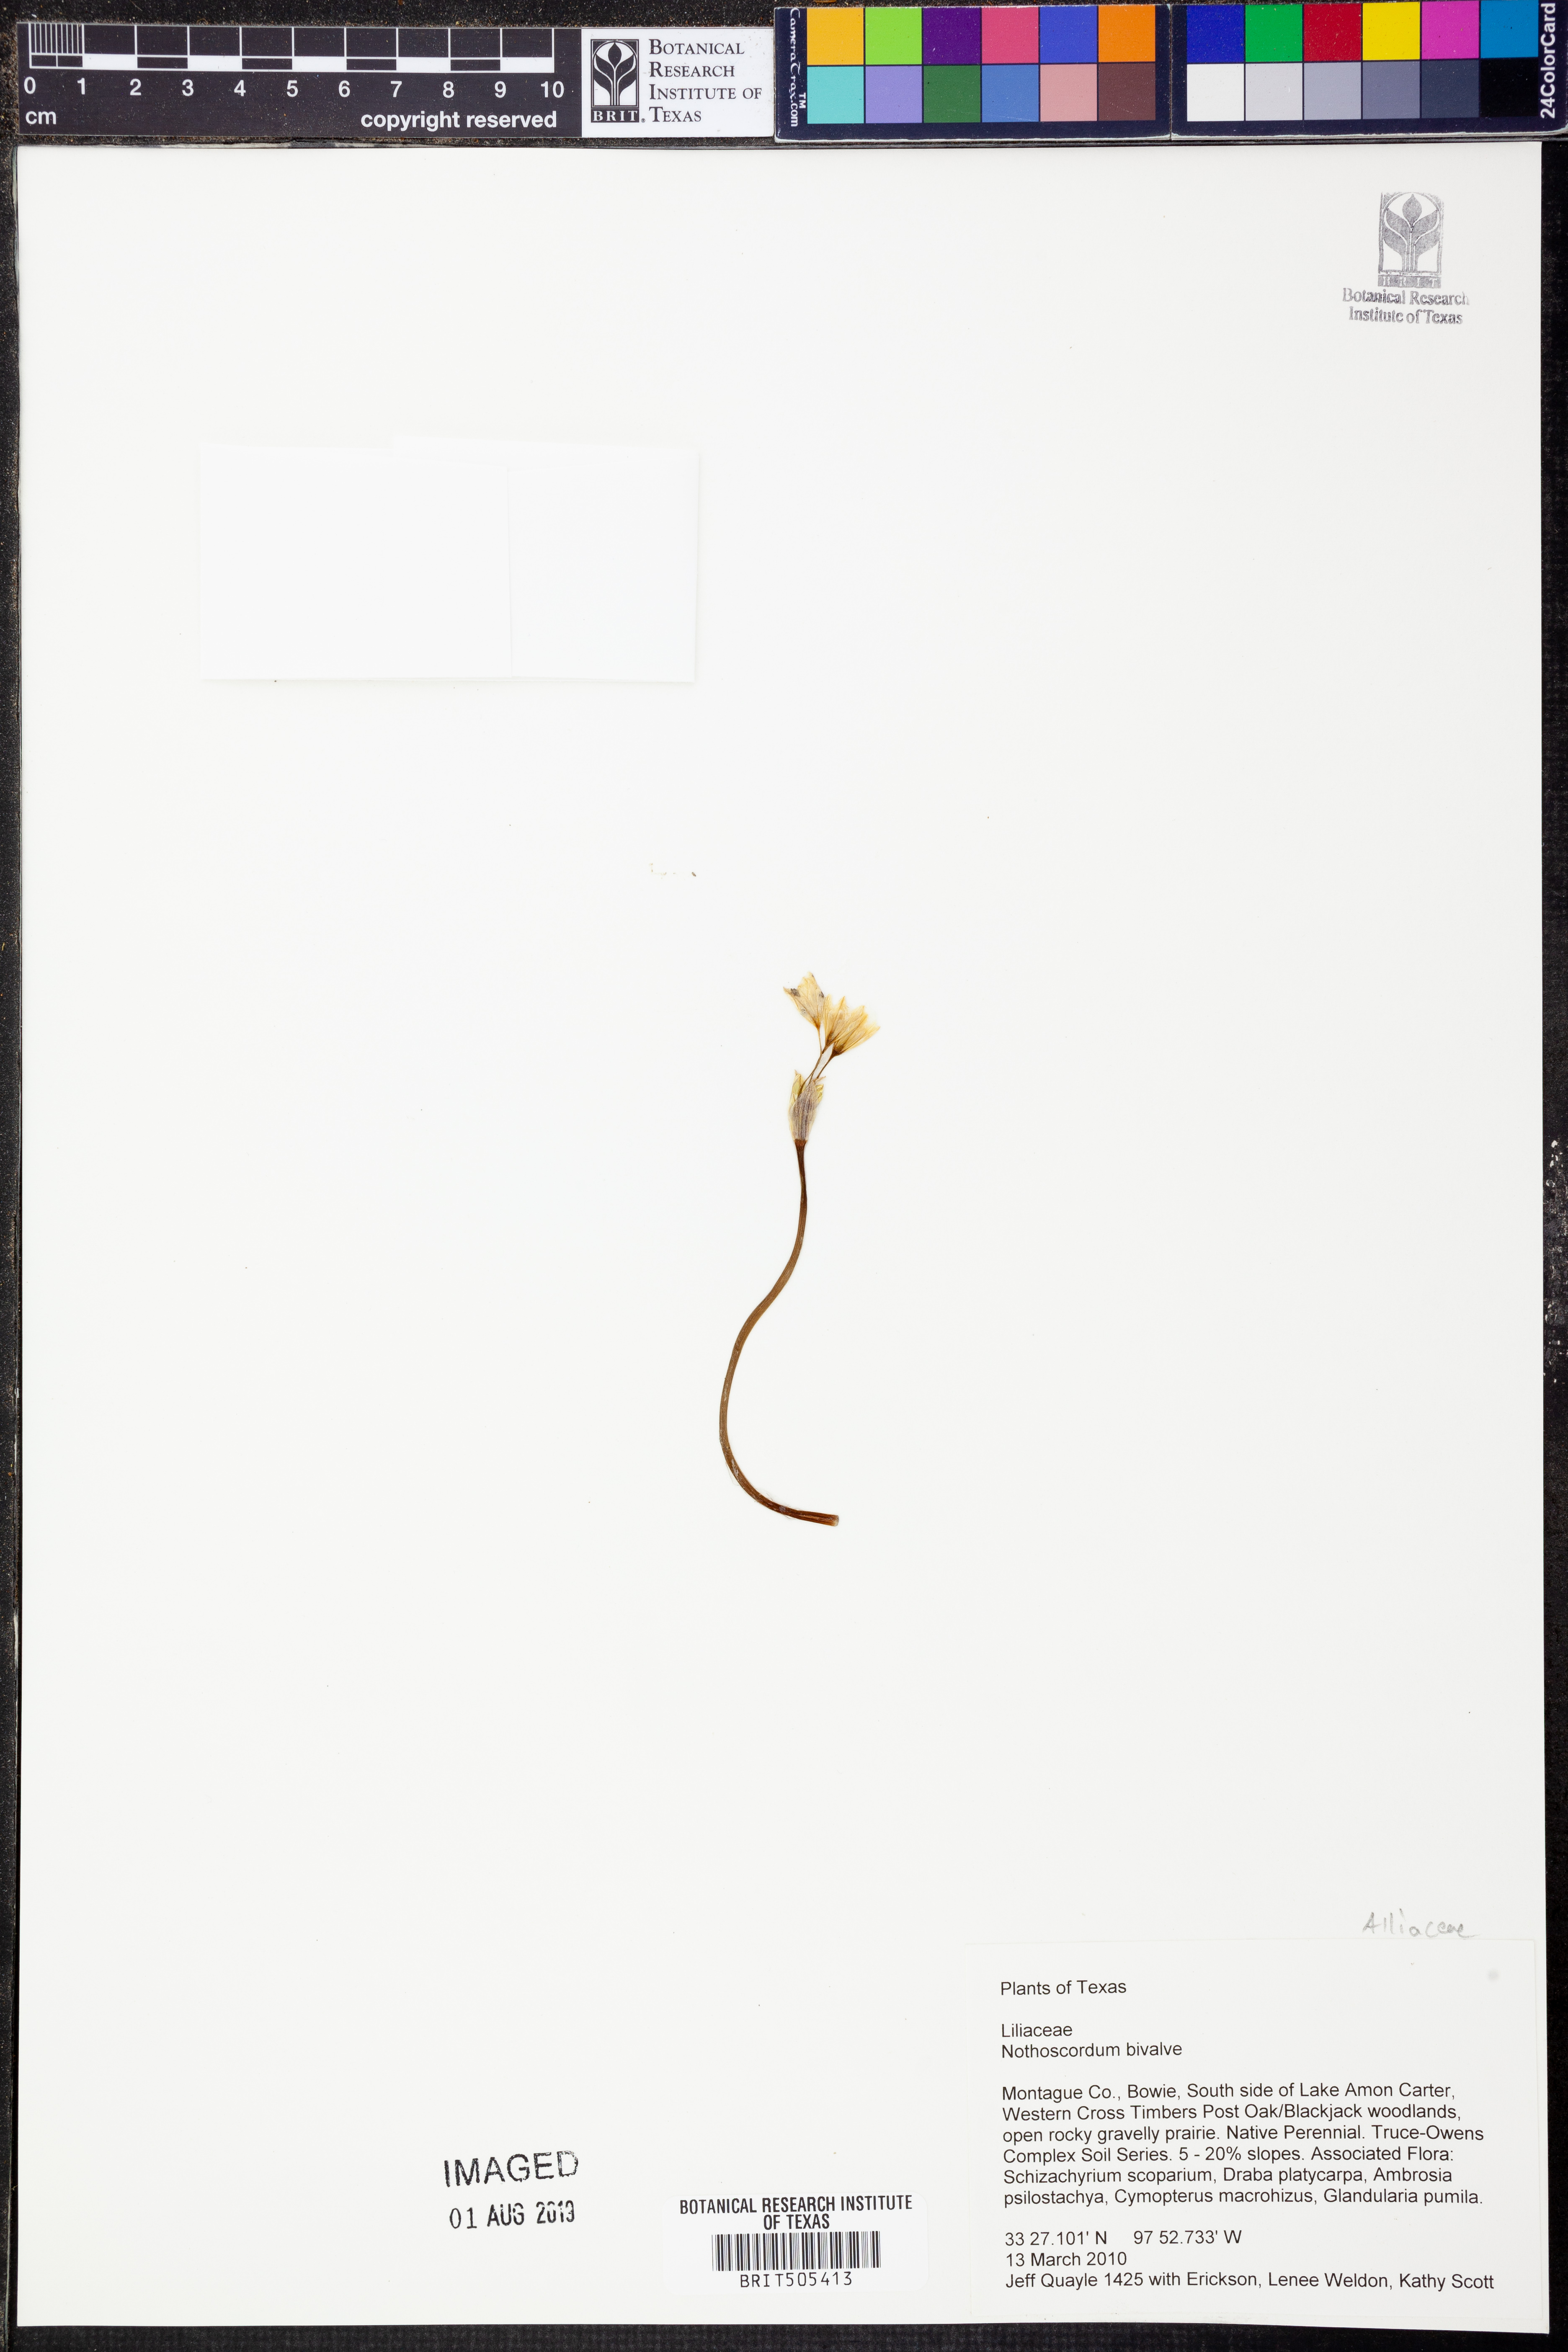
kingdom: Plantae
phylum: Tracheophyta
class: Liliopsida
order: Asparagales
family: Amaryllidaceae
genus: Nothoscordum
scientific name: Nothoscordum bivalve
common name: Crow-poison
